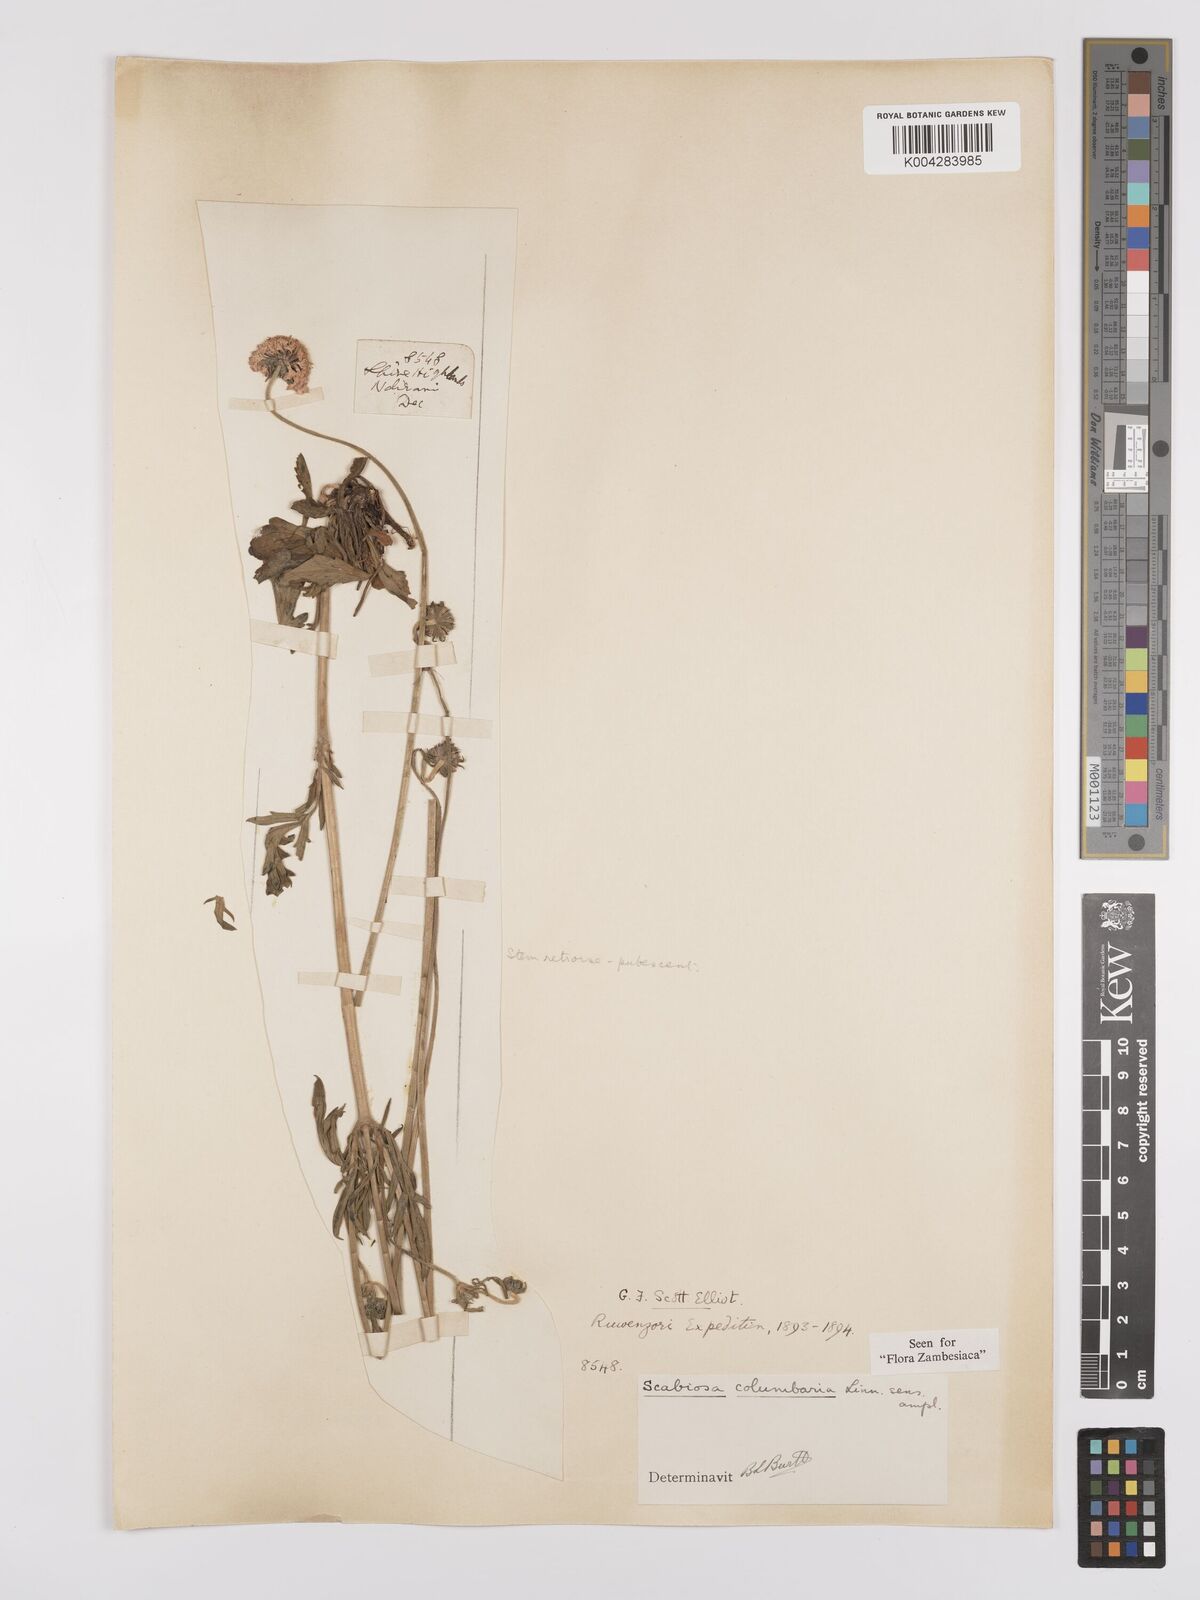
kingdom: Plantae
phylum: Tracheophyta
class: Magnoliopsida
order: Dipsacales
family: Caprifoliaceae
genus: Scabiosa
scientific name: Scabiosa columbaria
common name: Small scabious
